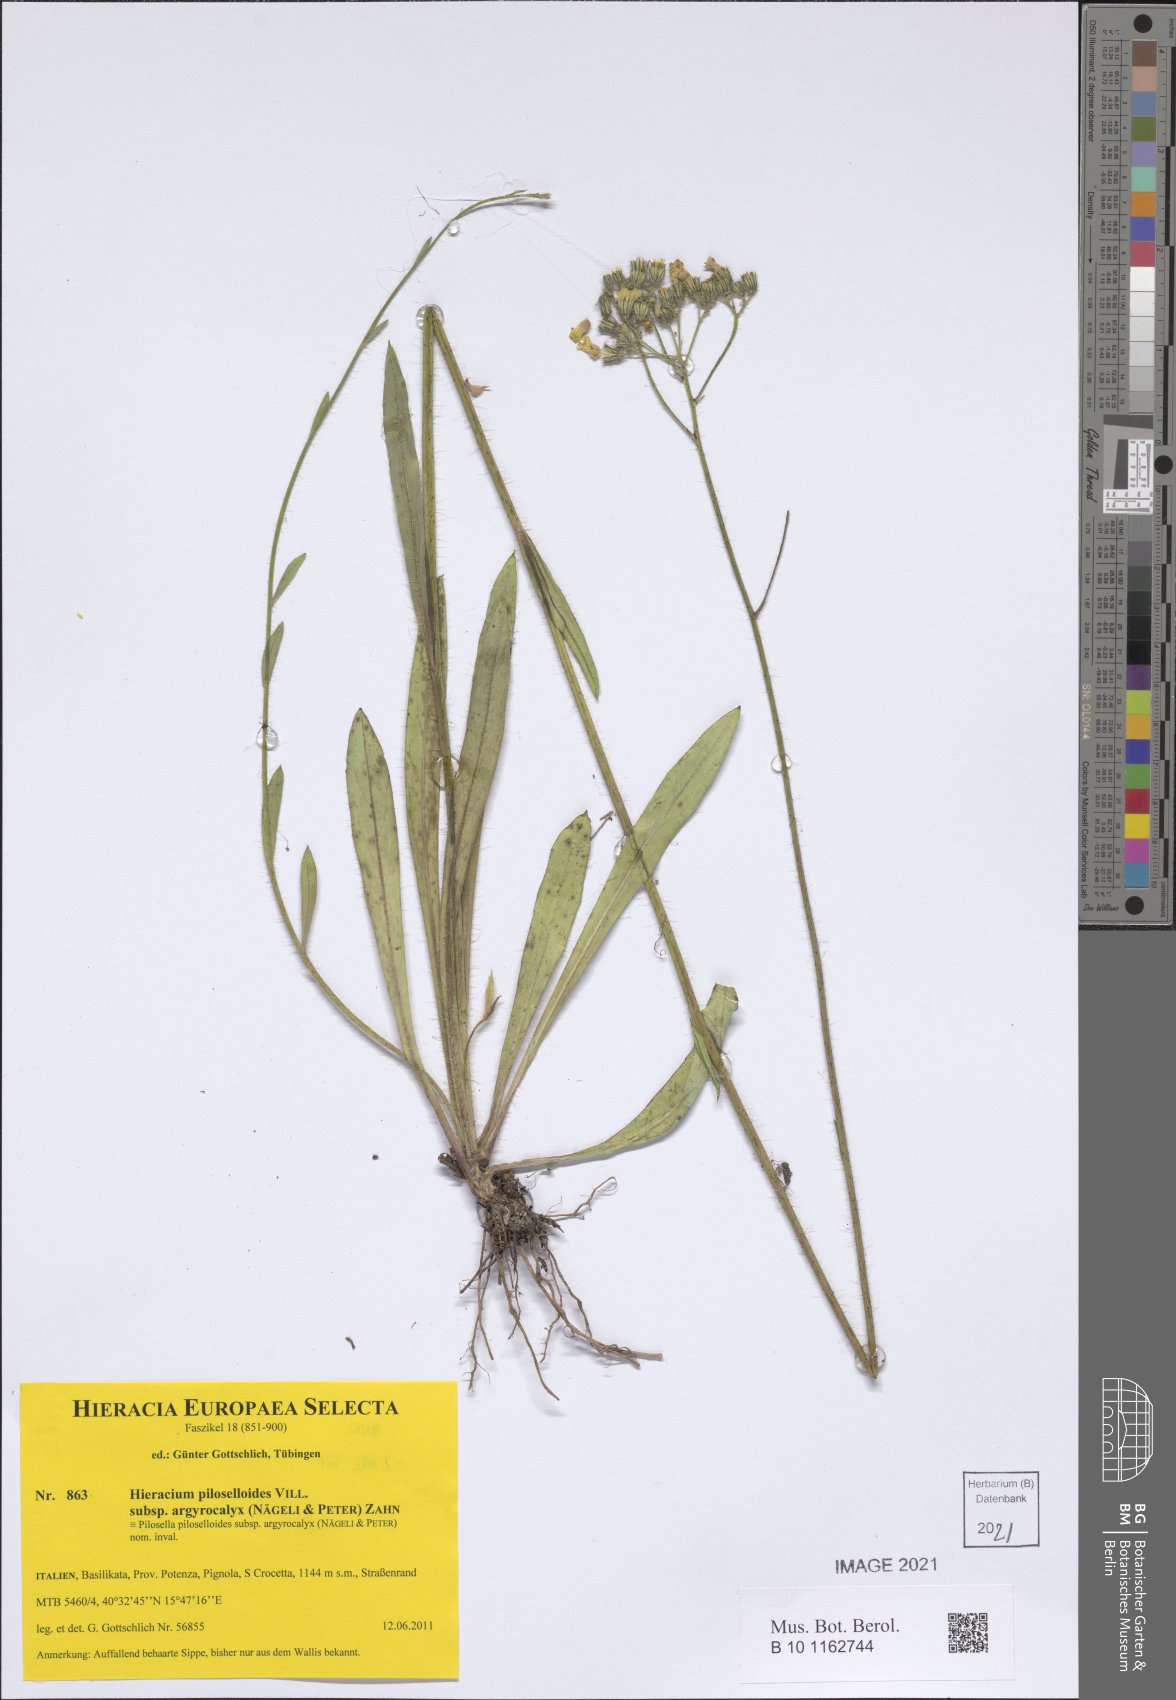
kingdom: Plantae
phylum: Tracheophyta
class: Magnoliopsida
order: Asterales
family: Asteraceae
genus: Pilosella
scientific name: Pilosella piloselloides
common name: Glaucous king-devil
